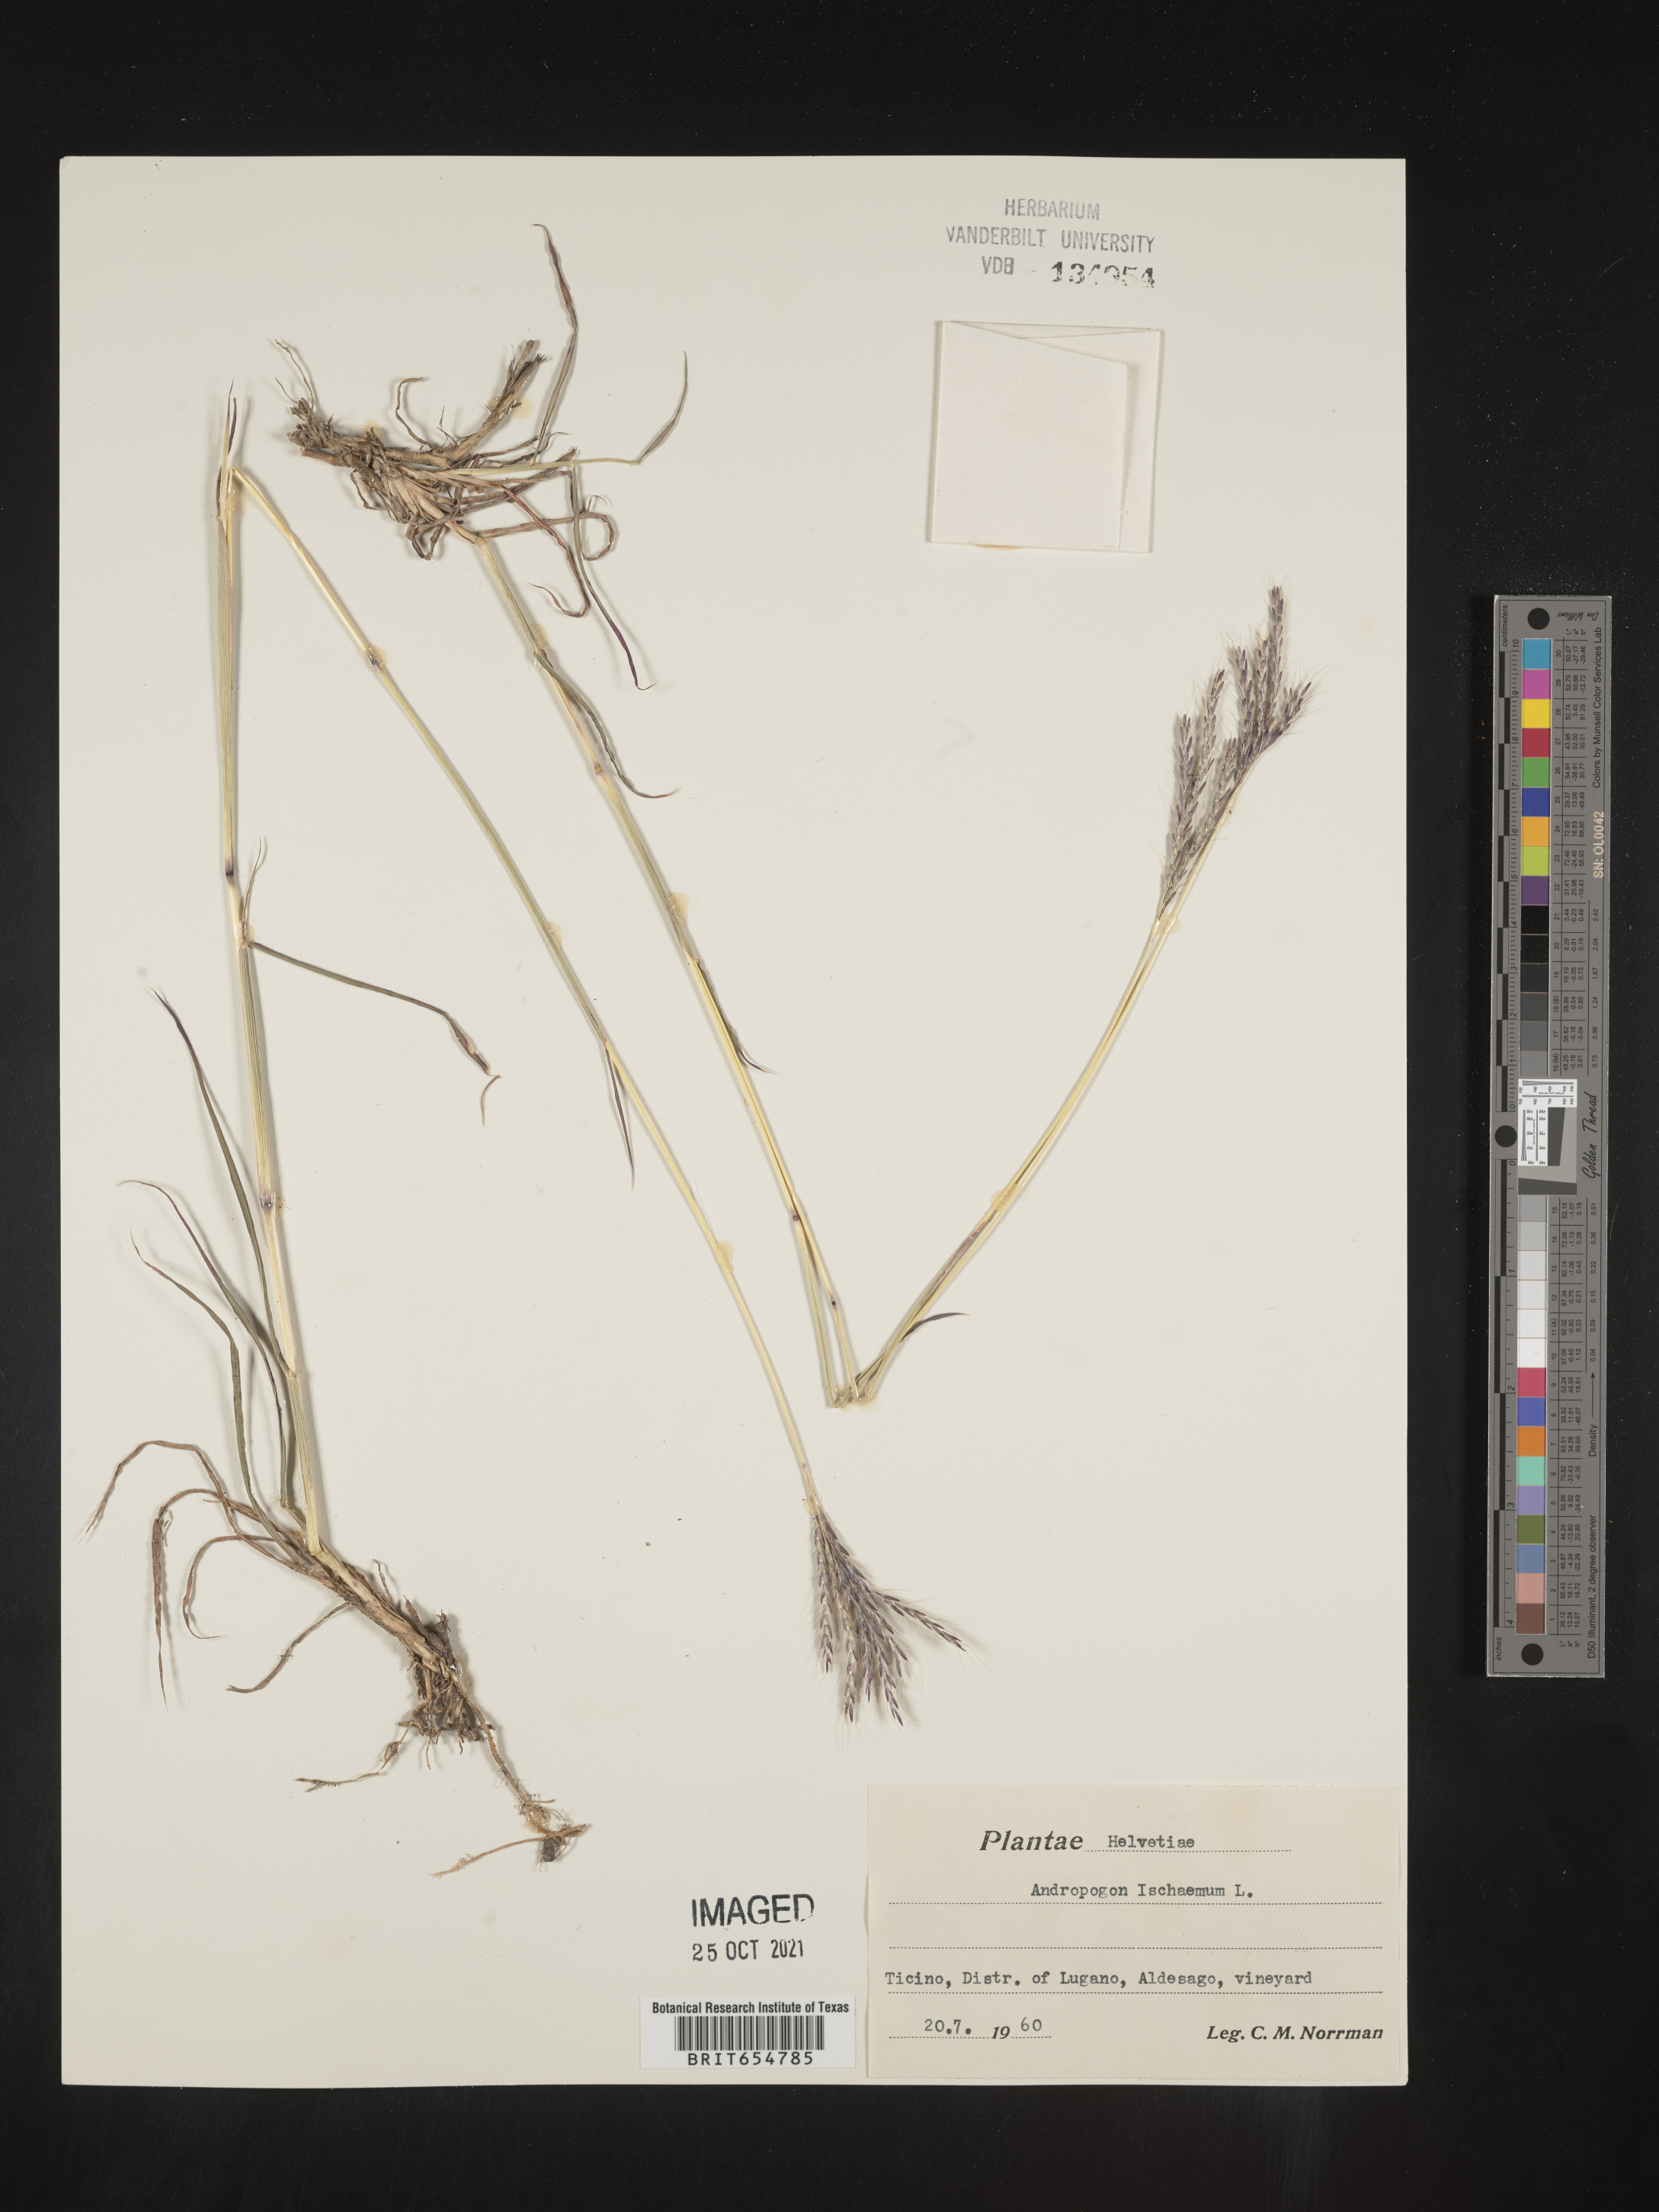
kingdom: Plantae
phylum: Tracheophyta
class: Liliopsida
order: Poales
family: Poaceae
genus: Andropogon
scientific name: Andropogon
